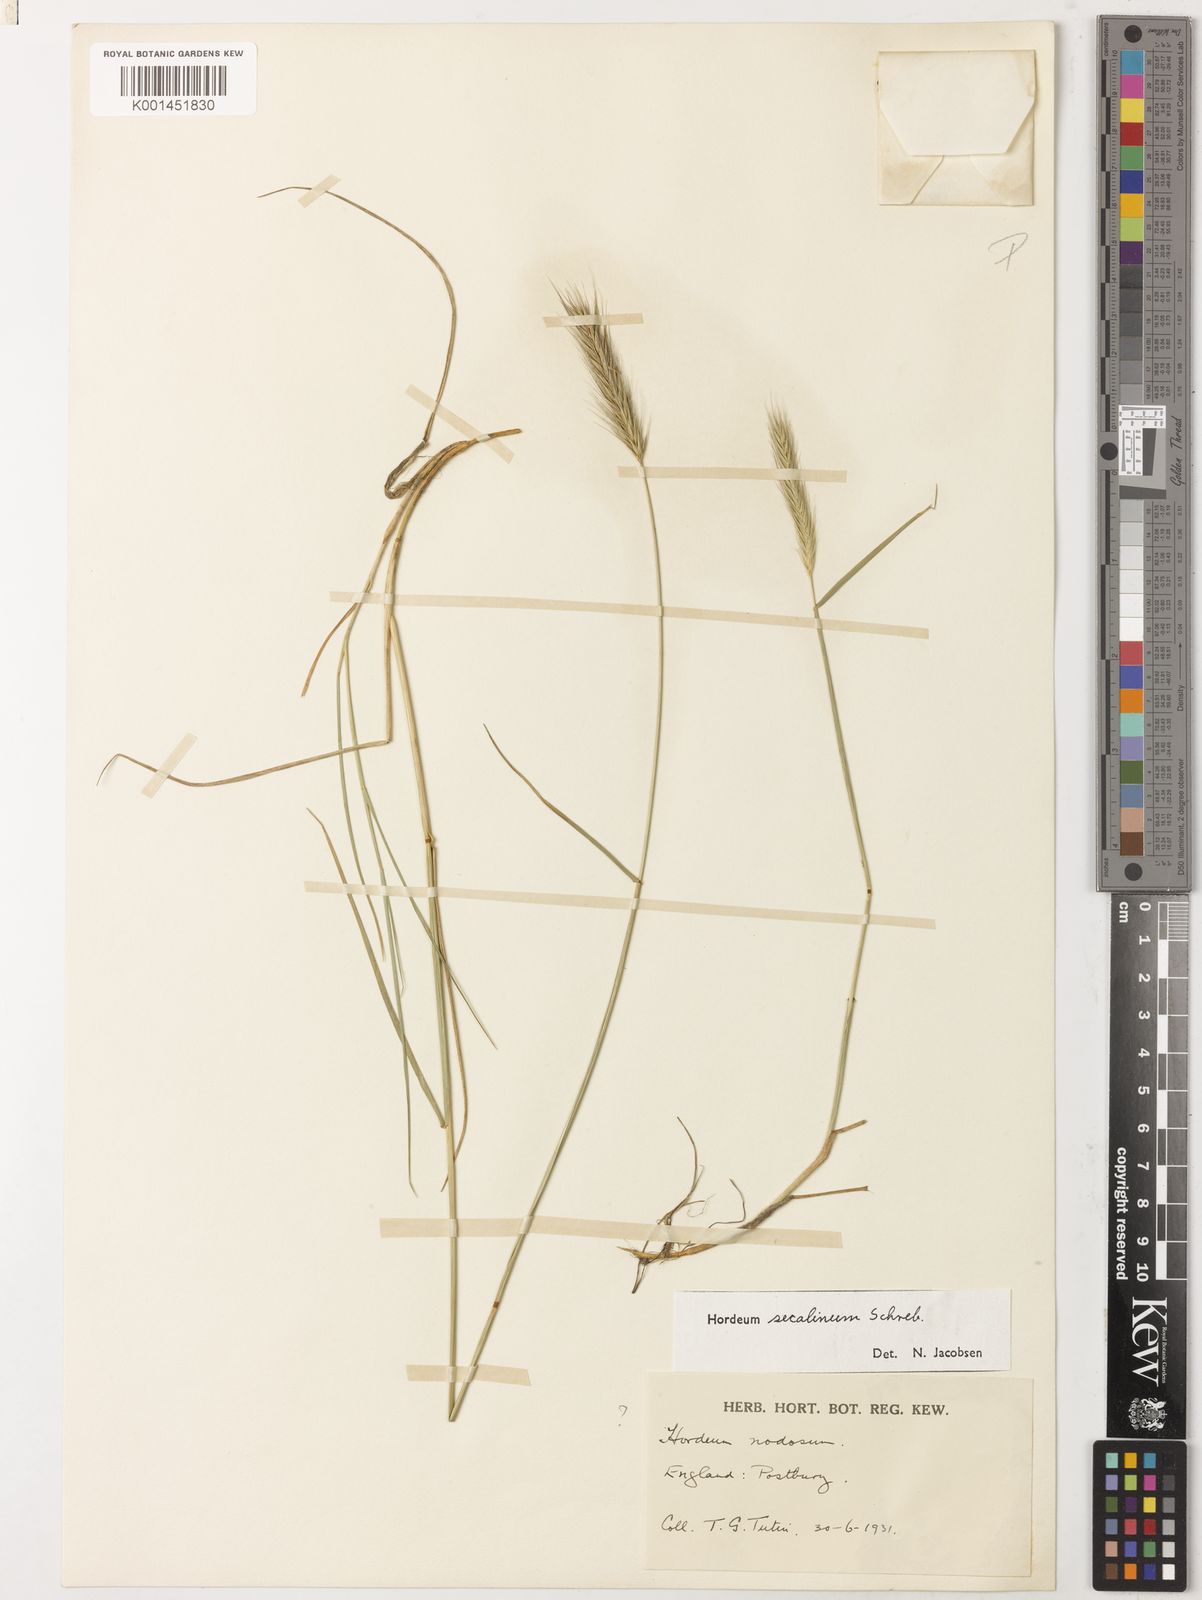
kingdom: Plantae
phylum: Tracheophyta
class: Liliopsida
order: Poales
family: Poaceae
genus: Hordeum
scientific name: Hordeum secalinum
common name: Meadow barley
